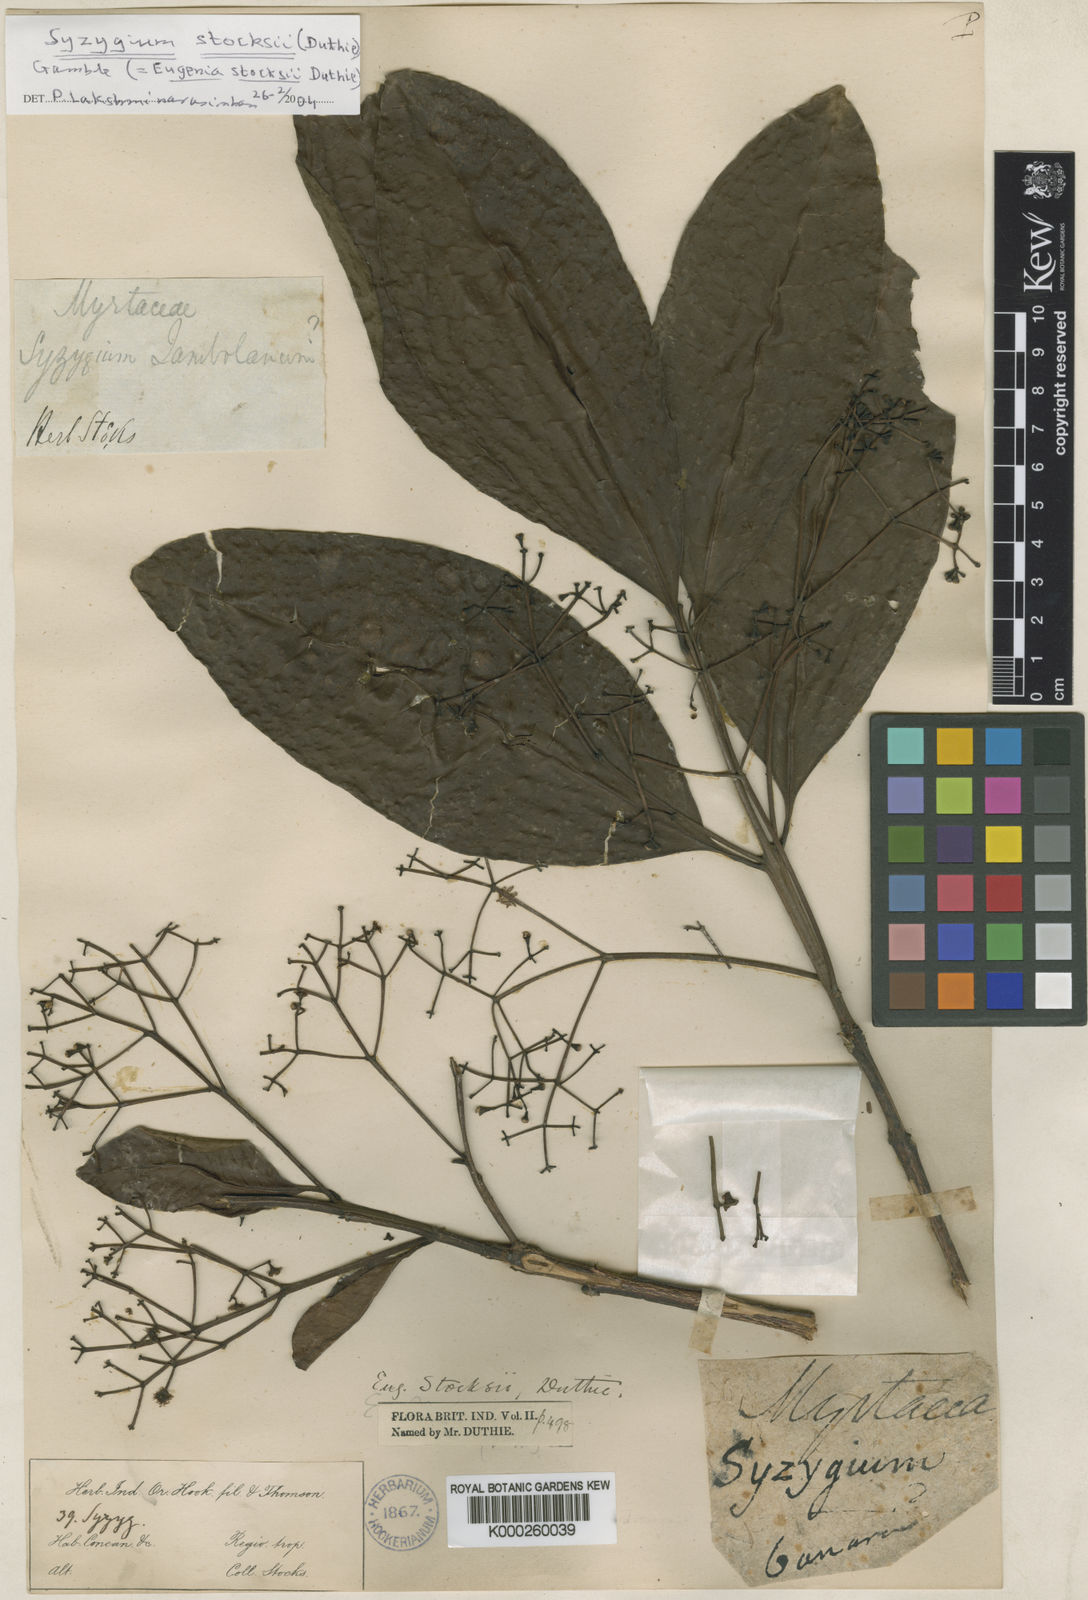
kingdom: Plantae
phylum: Tracheophyta
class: Magnoliopsida
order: Myrtales
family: Myrtaceae
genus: Syzygium
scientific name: Syzygium stocksii
